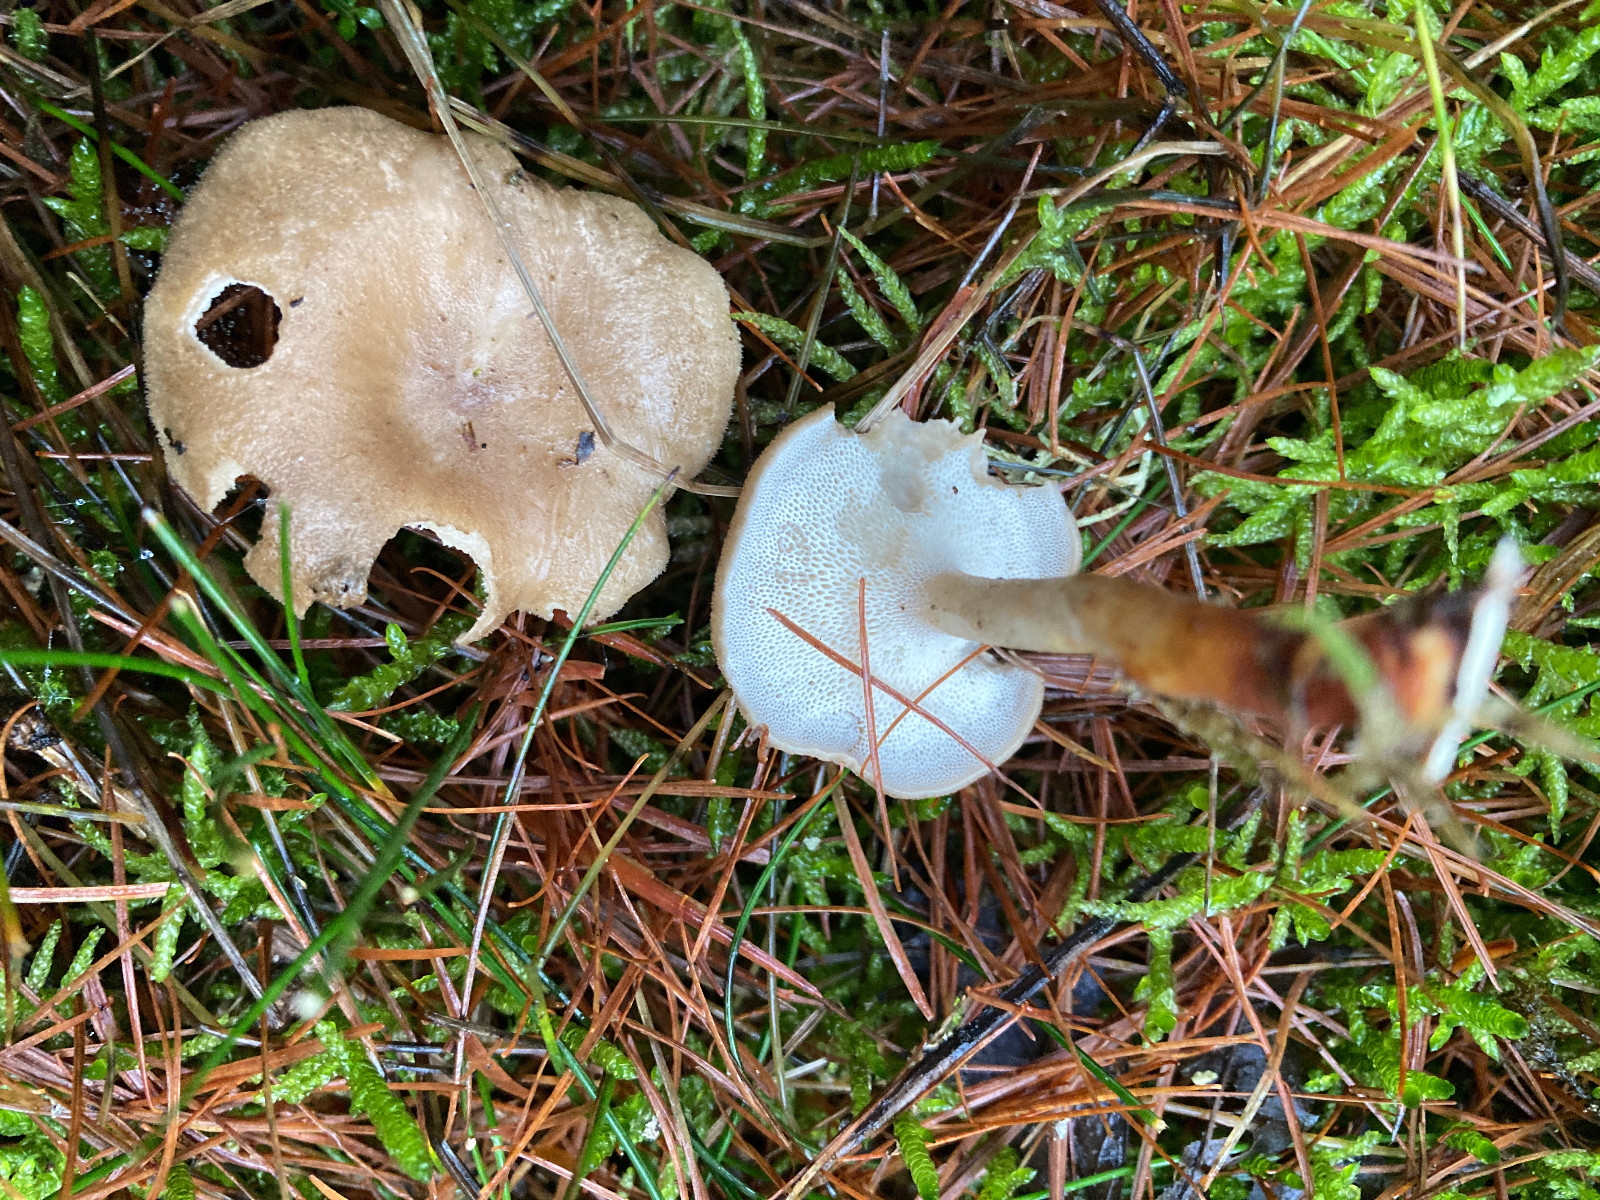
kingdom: Fungi
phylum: Basidiomycota
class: Agaricomycetes
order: Polyporales
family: Polyporaceae
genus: Lentinus
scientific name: Lentinus substrictus
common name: forårs-stilkporesvamp
